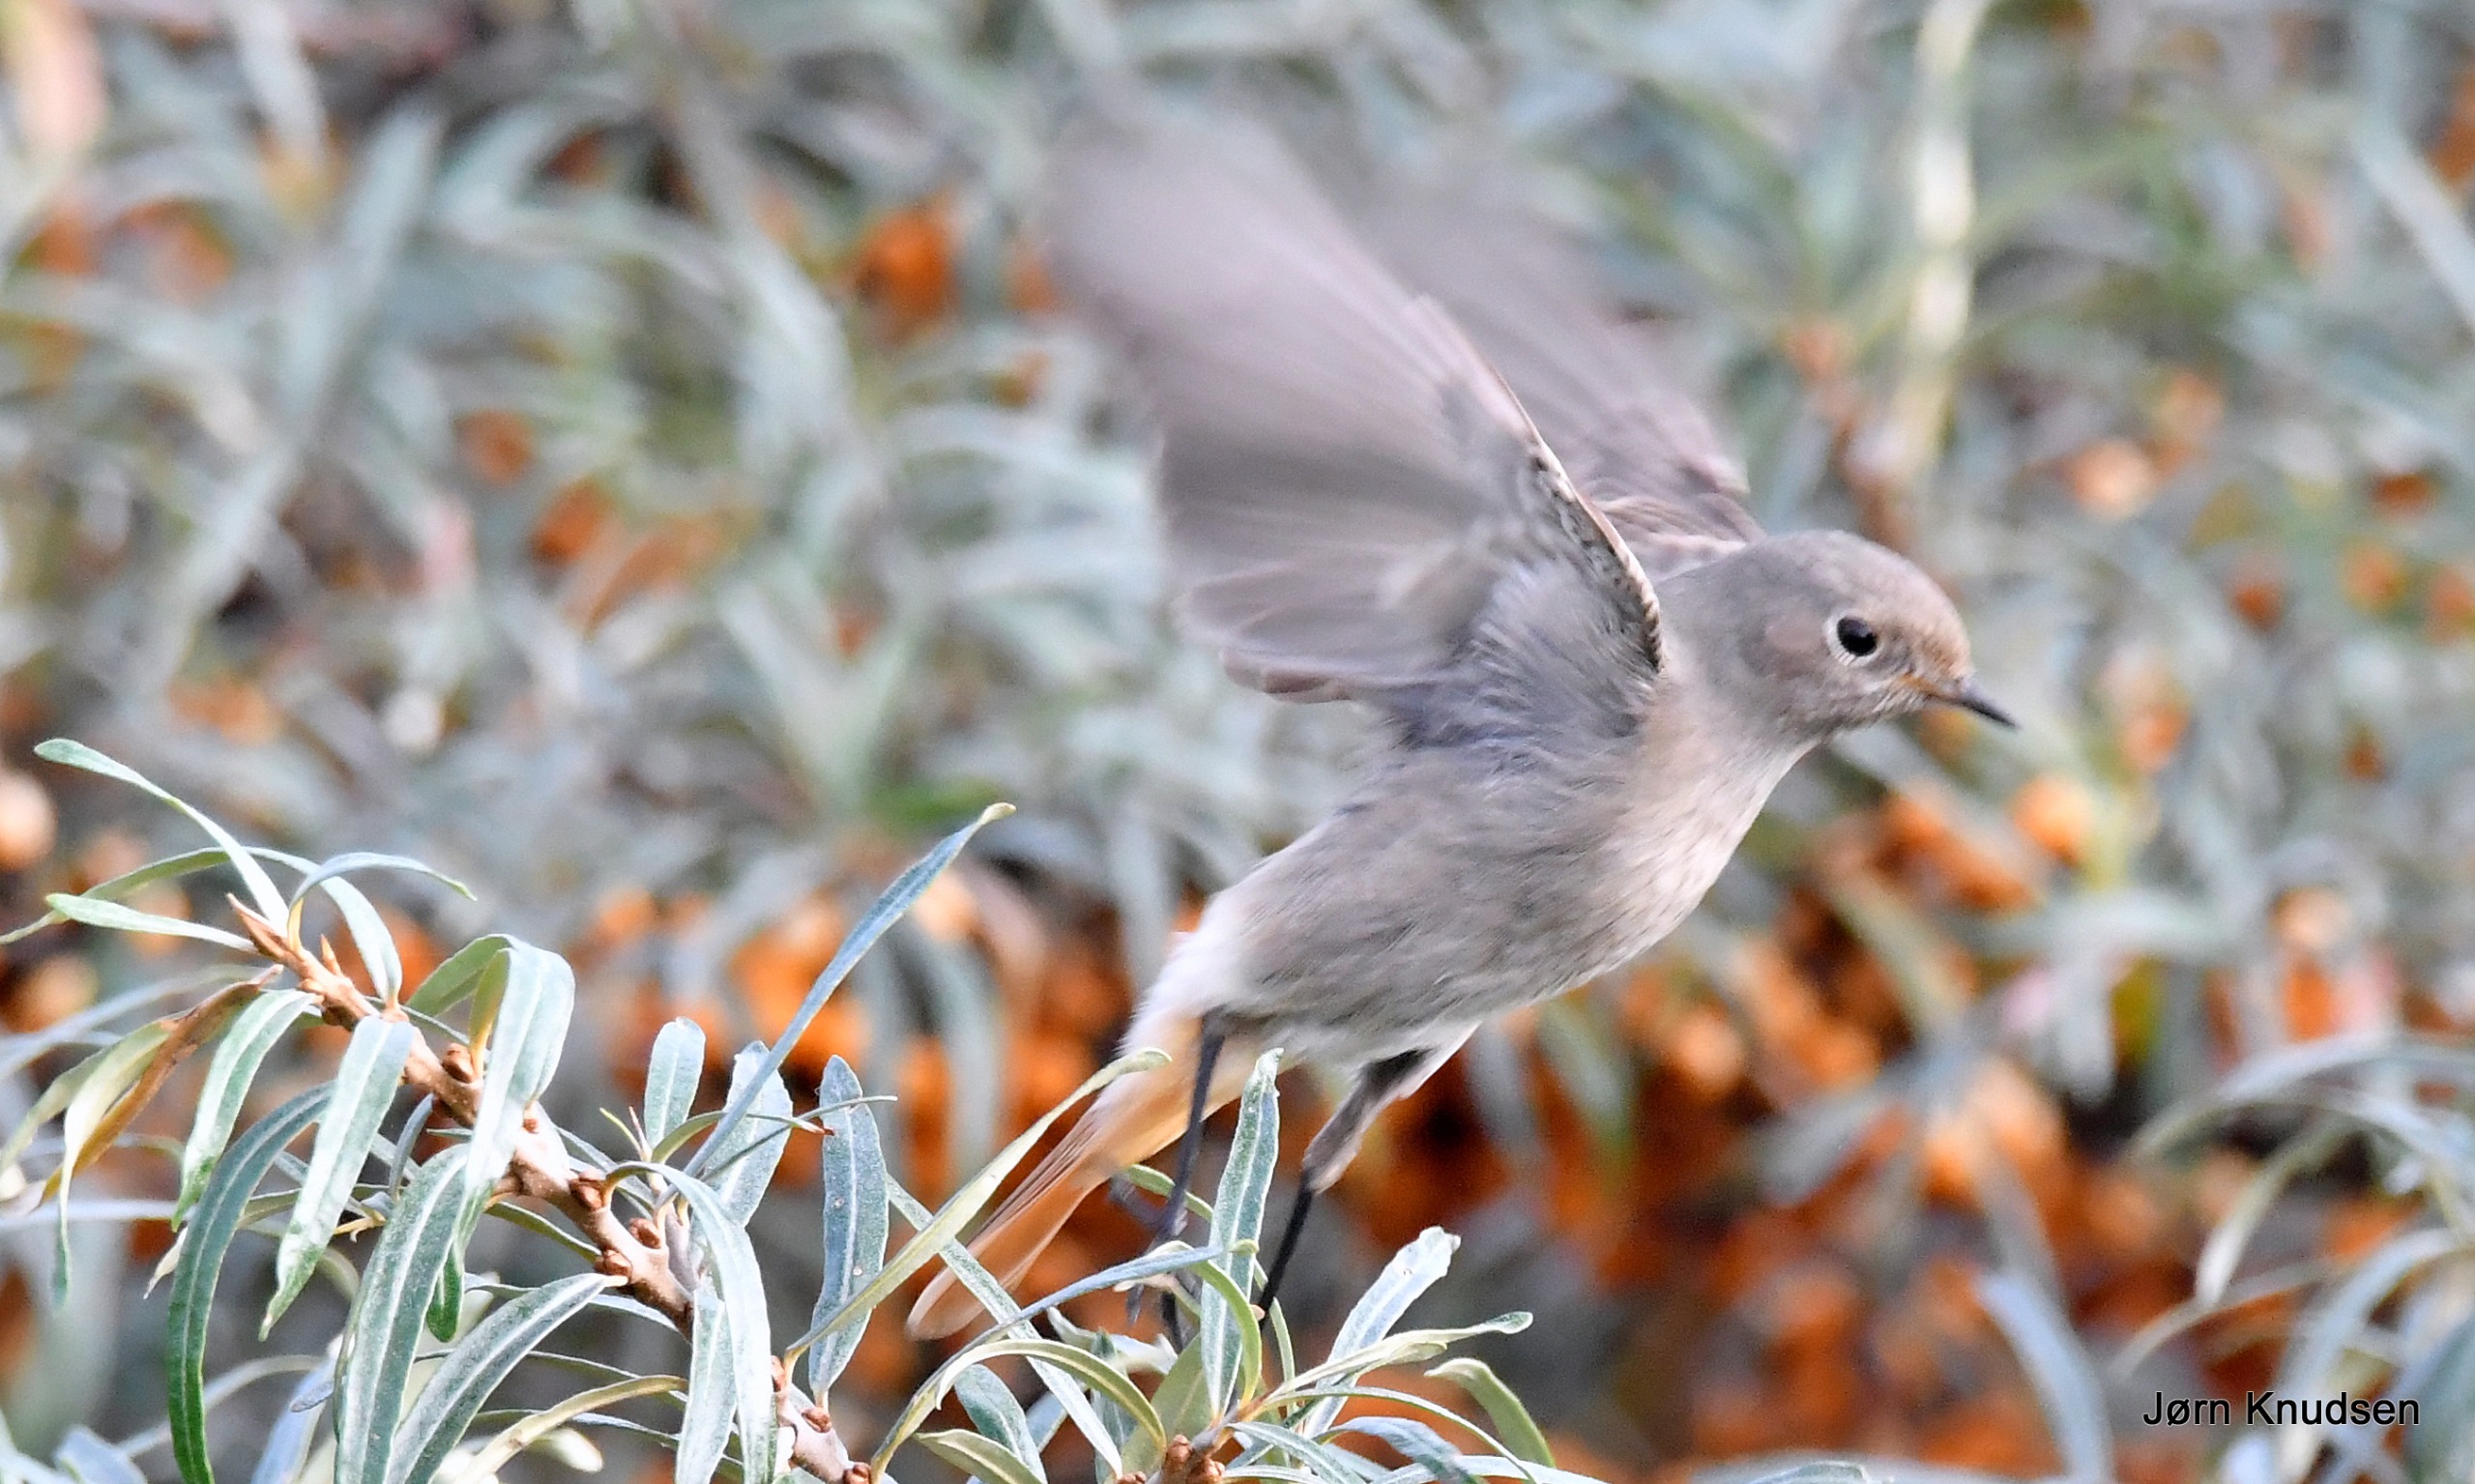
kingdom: Animalia
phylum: Chordata
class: Aves
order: Passeriformes
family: Muscicapidae
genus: Phoenicurus
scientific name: Phoenicurus ochruros
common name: Husrødstjert
